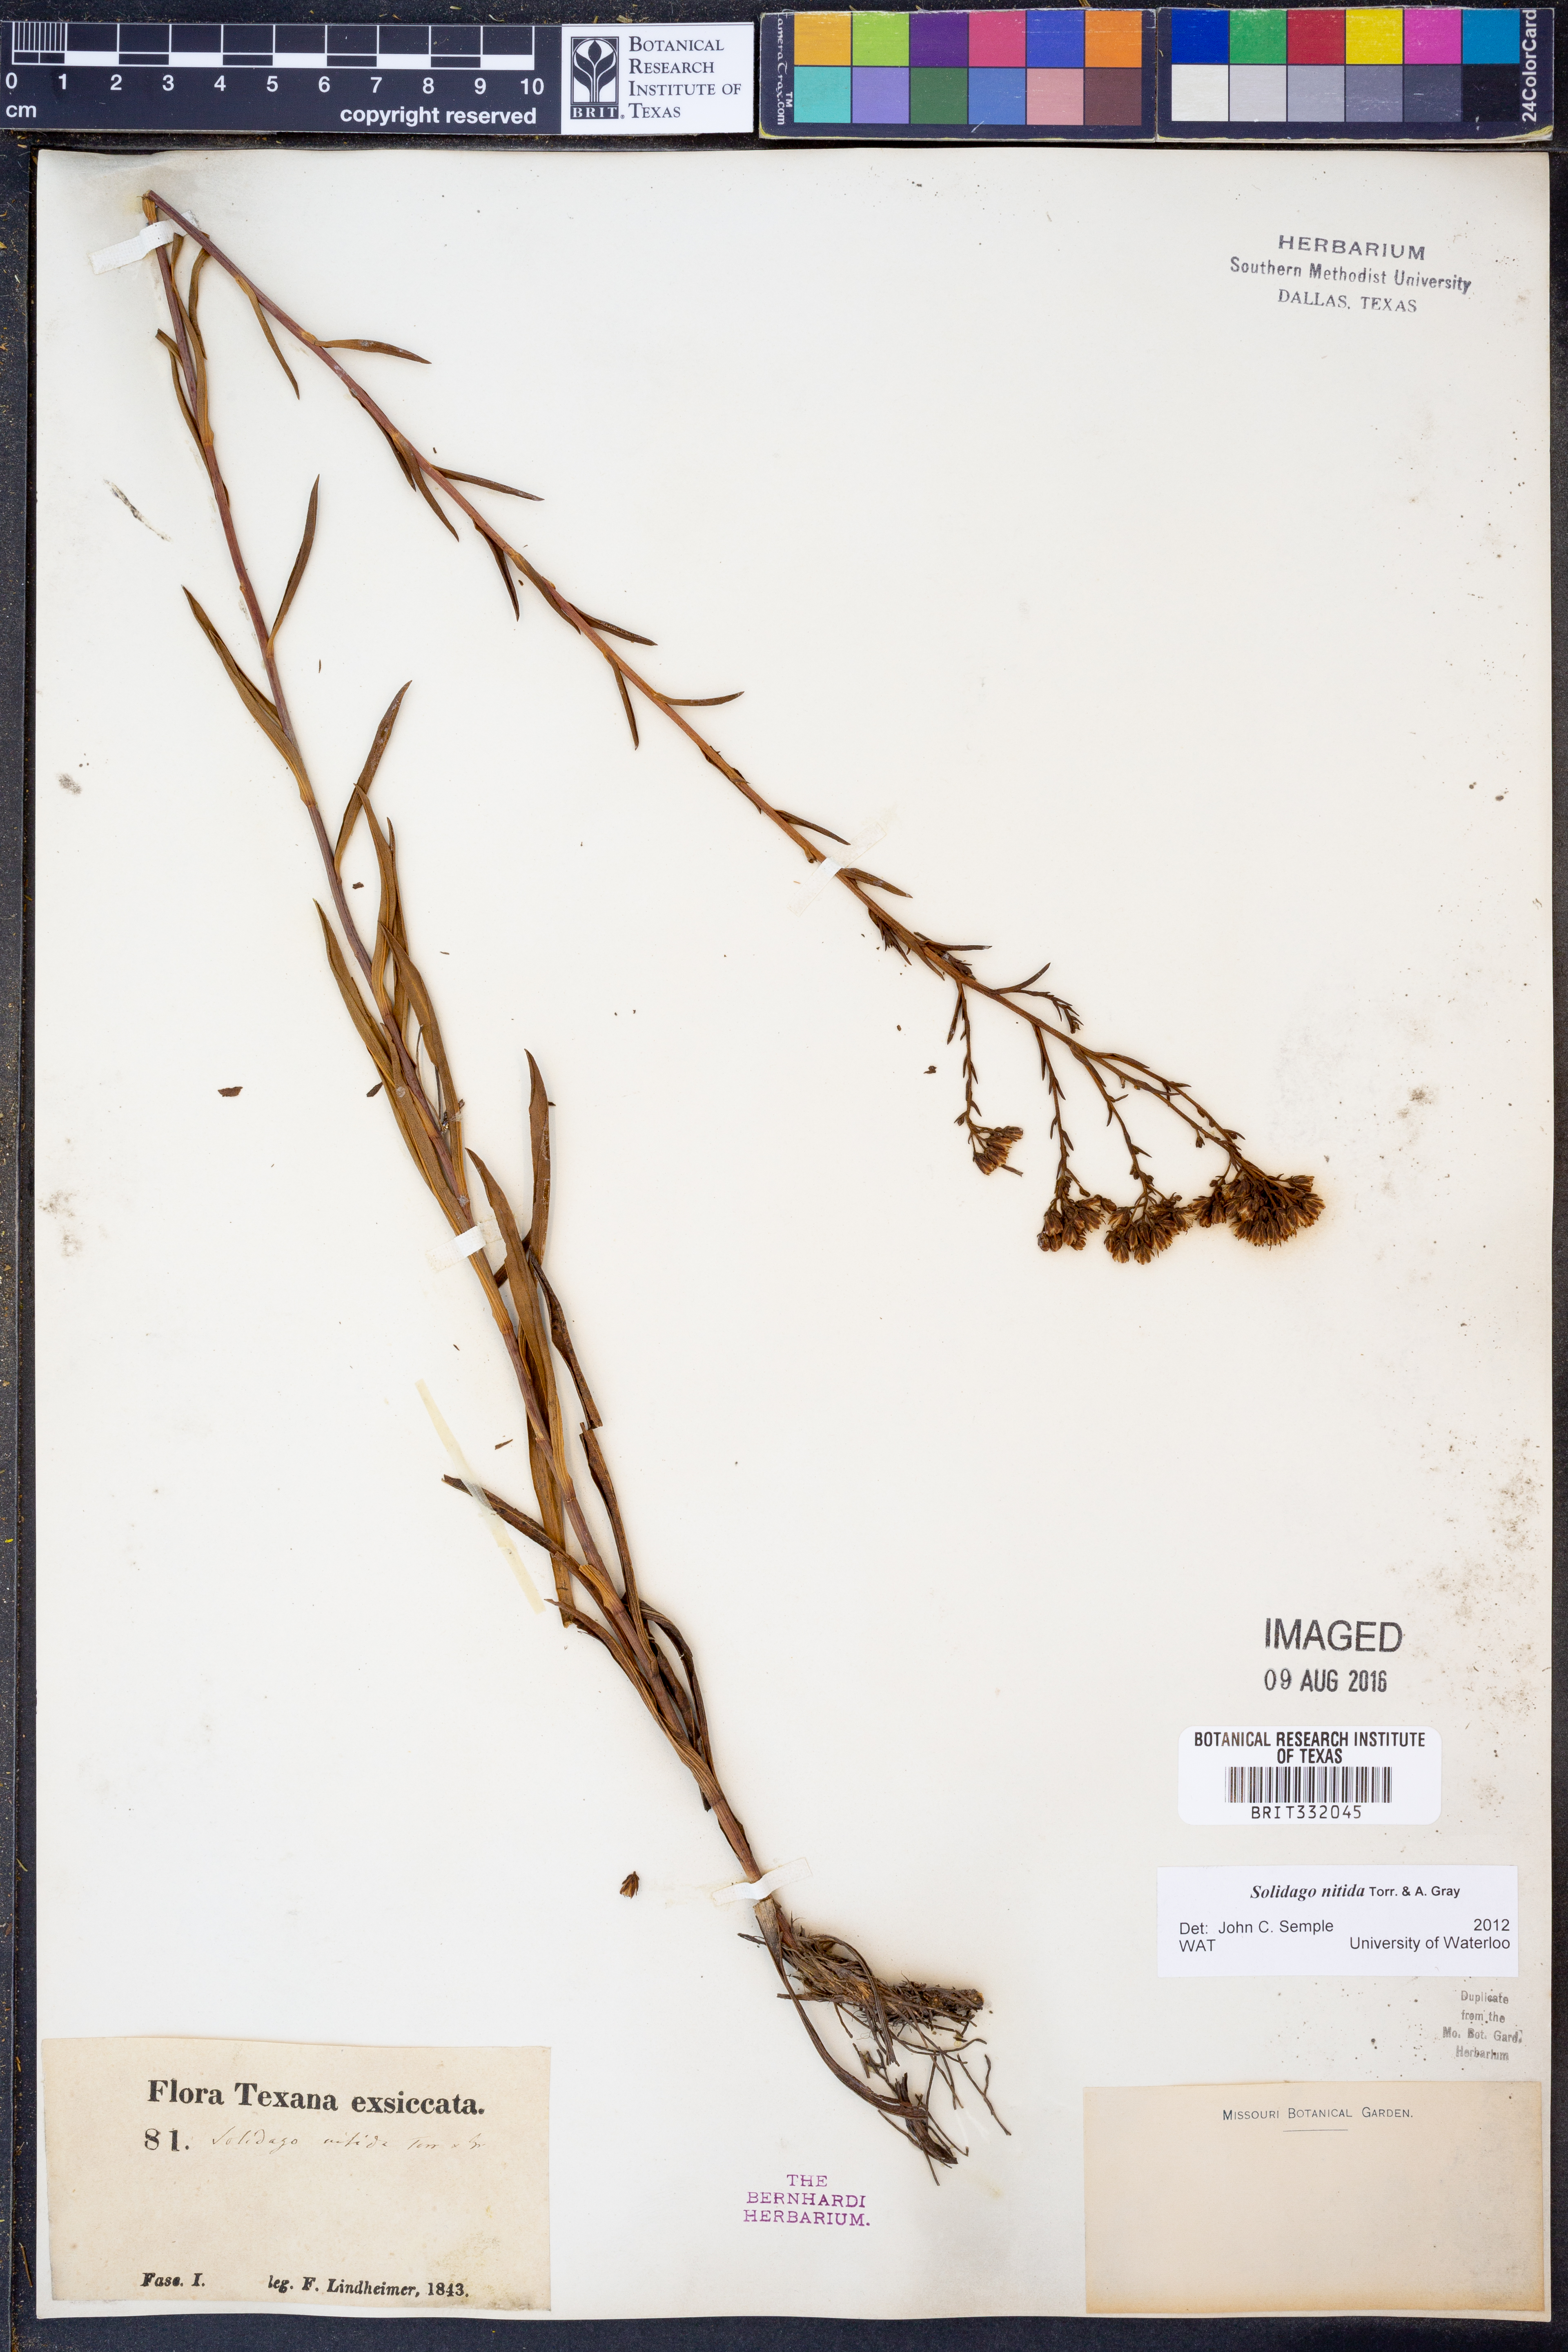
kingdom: Plantae
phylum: Tracheophyta
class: Magnoliopsida
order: Asterales
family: Asteraceae
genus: Solidago
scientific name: Solidago nitida
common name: Shiny goldenrod
